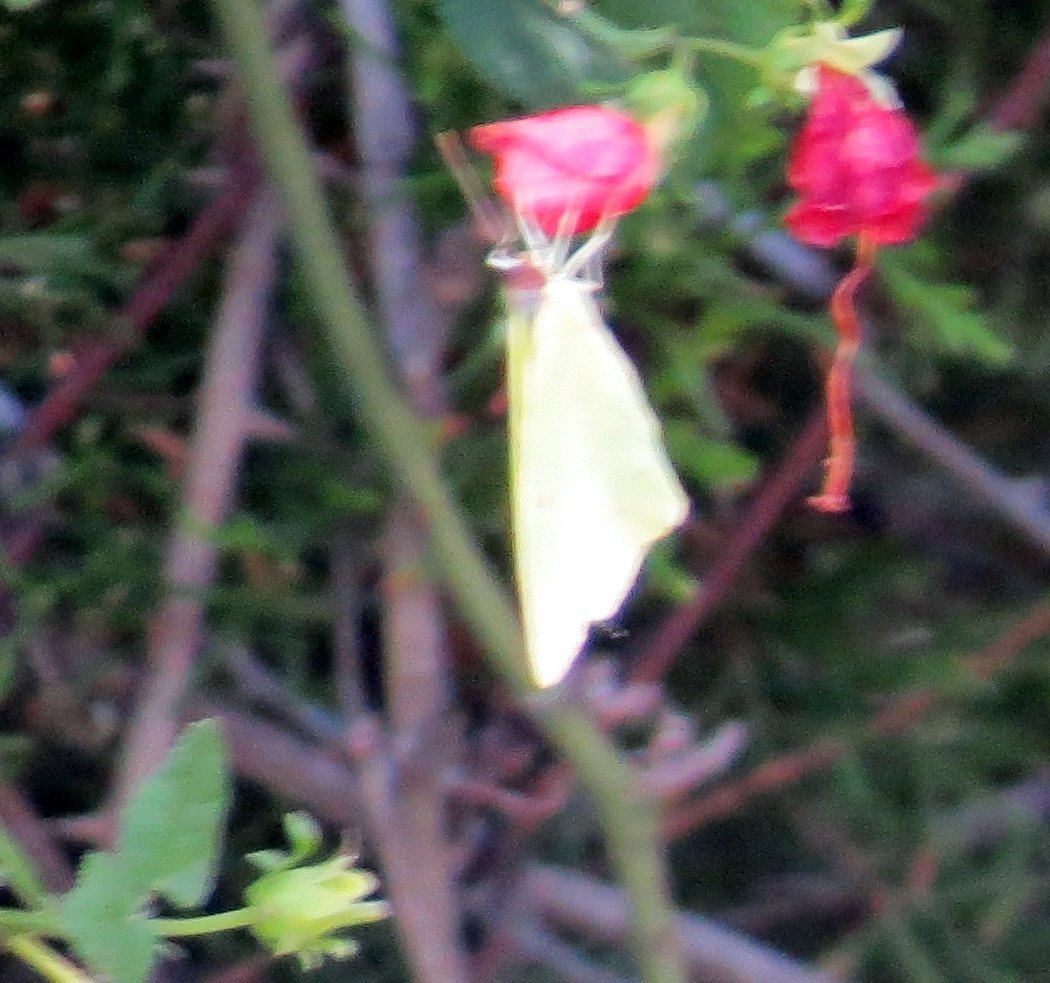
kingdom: Animalia
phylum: Arthropoda
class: Insecta
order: Lepidoptera
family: Pieridae
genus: Phoebis
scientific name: Phoebis sennae
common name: Cloudless Sulphur
